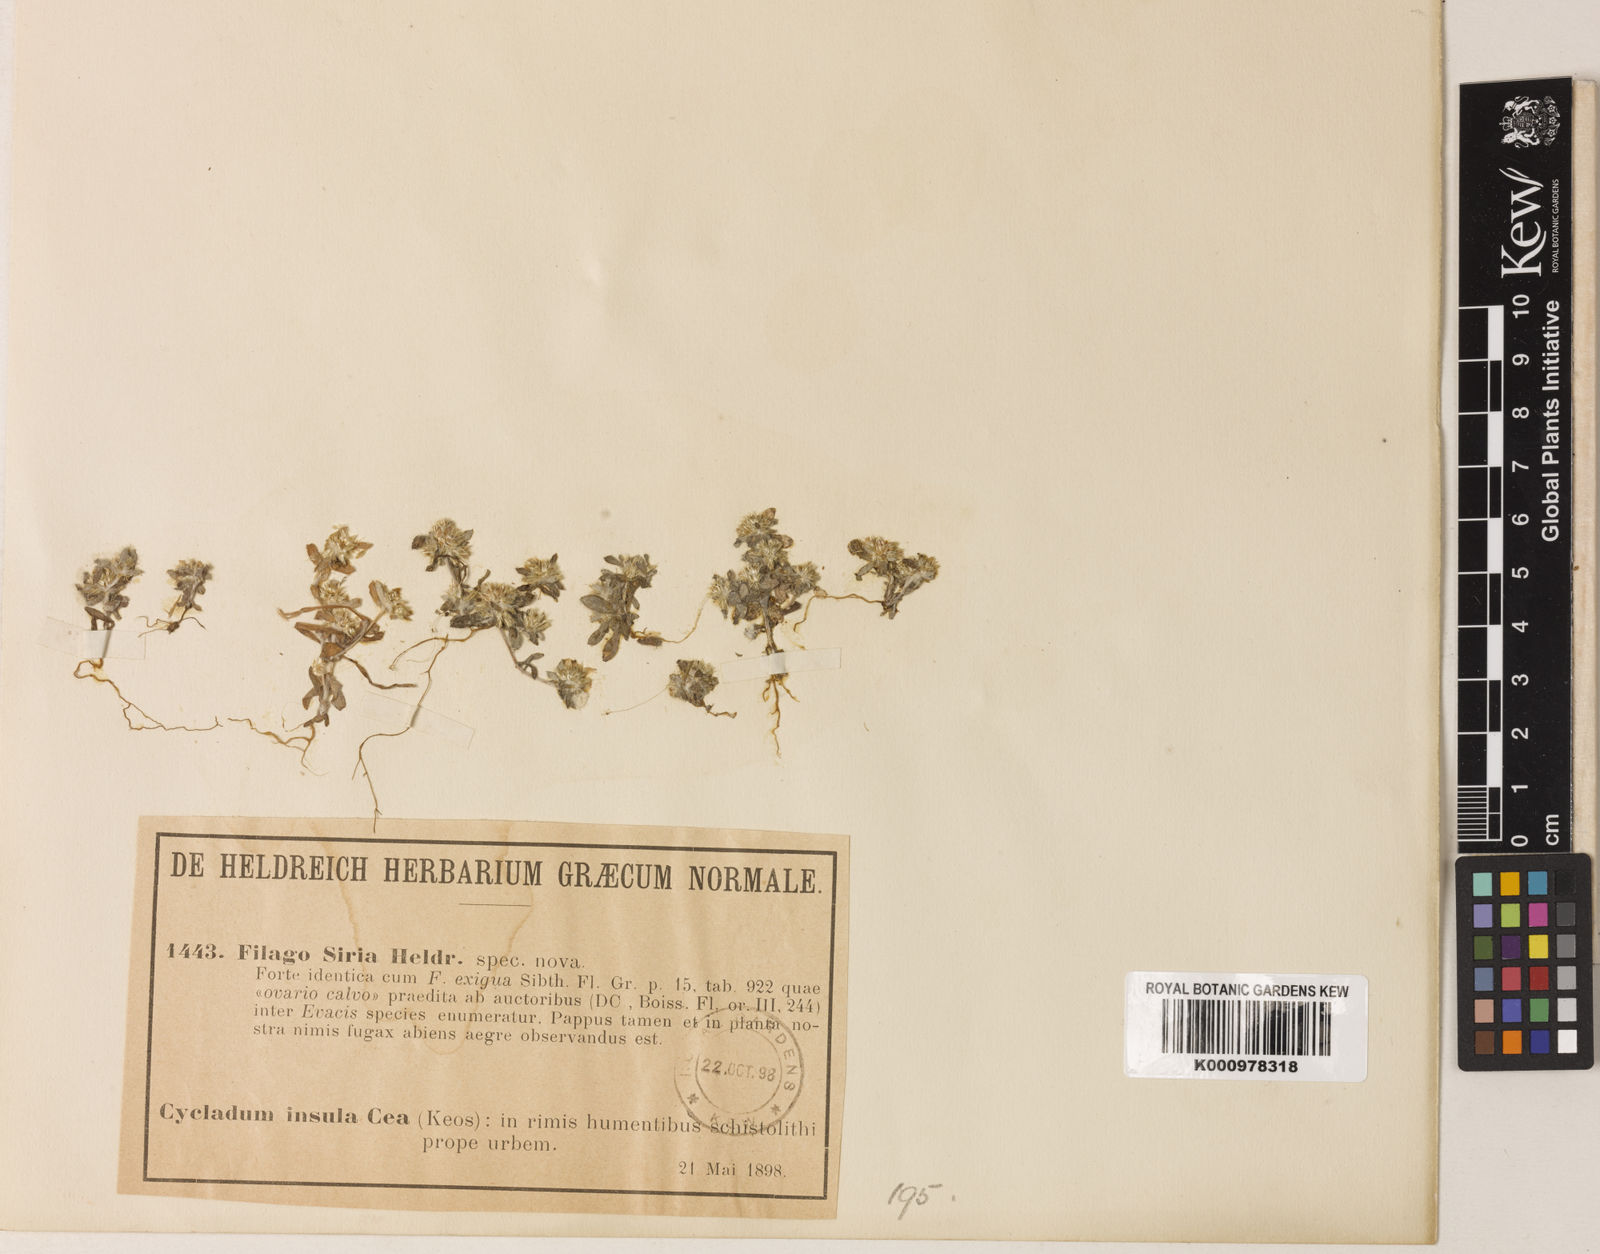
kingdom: Plantae
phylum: Tracheophyta
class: Magnoliopsida
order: Asterales
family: Asteraceae
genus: Filago
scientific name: Filago
